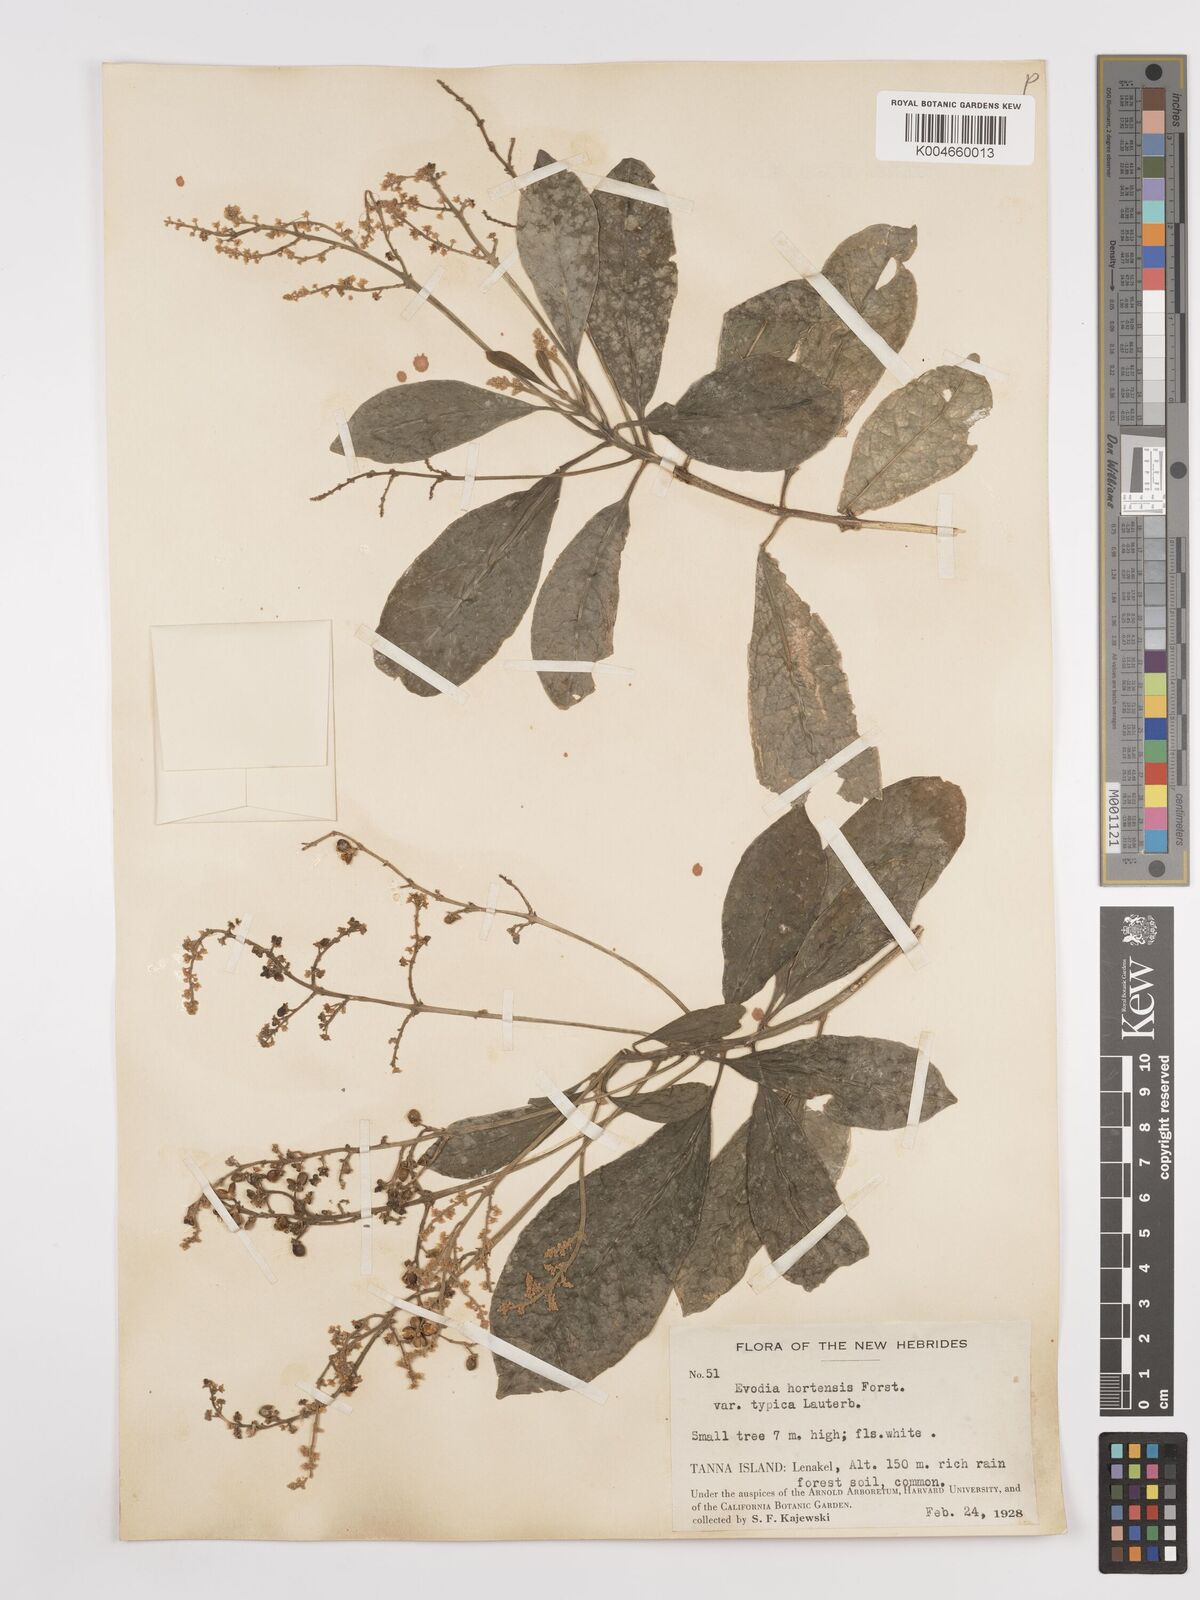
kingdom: Plantae
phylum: Tracheophyta
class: Magnoliopsida
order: Sapindales
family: Rutaceae
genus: Euodia
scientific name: Euodia hortensis
